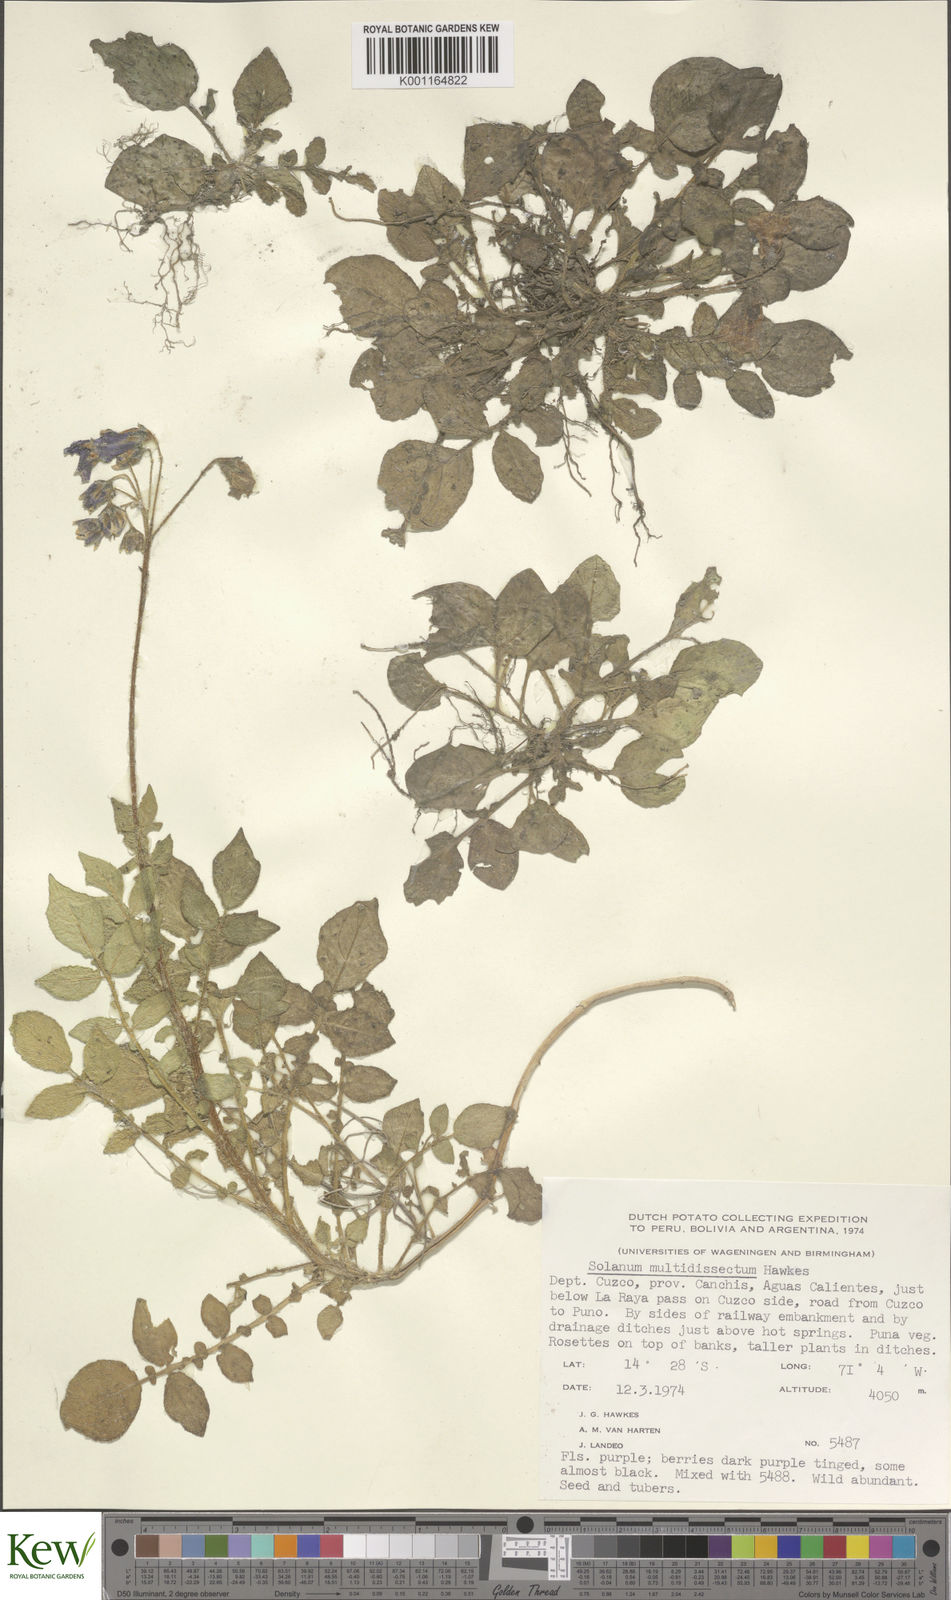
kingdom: Plantae
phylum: Tracheophyta
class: Magnoliopsida
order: Solanales
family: Solanaceae
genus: Solanum
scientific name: Solanum candolleanum
